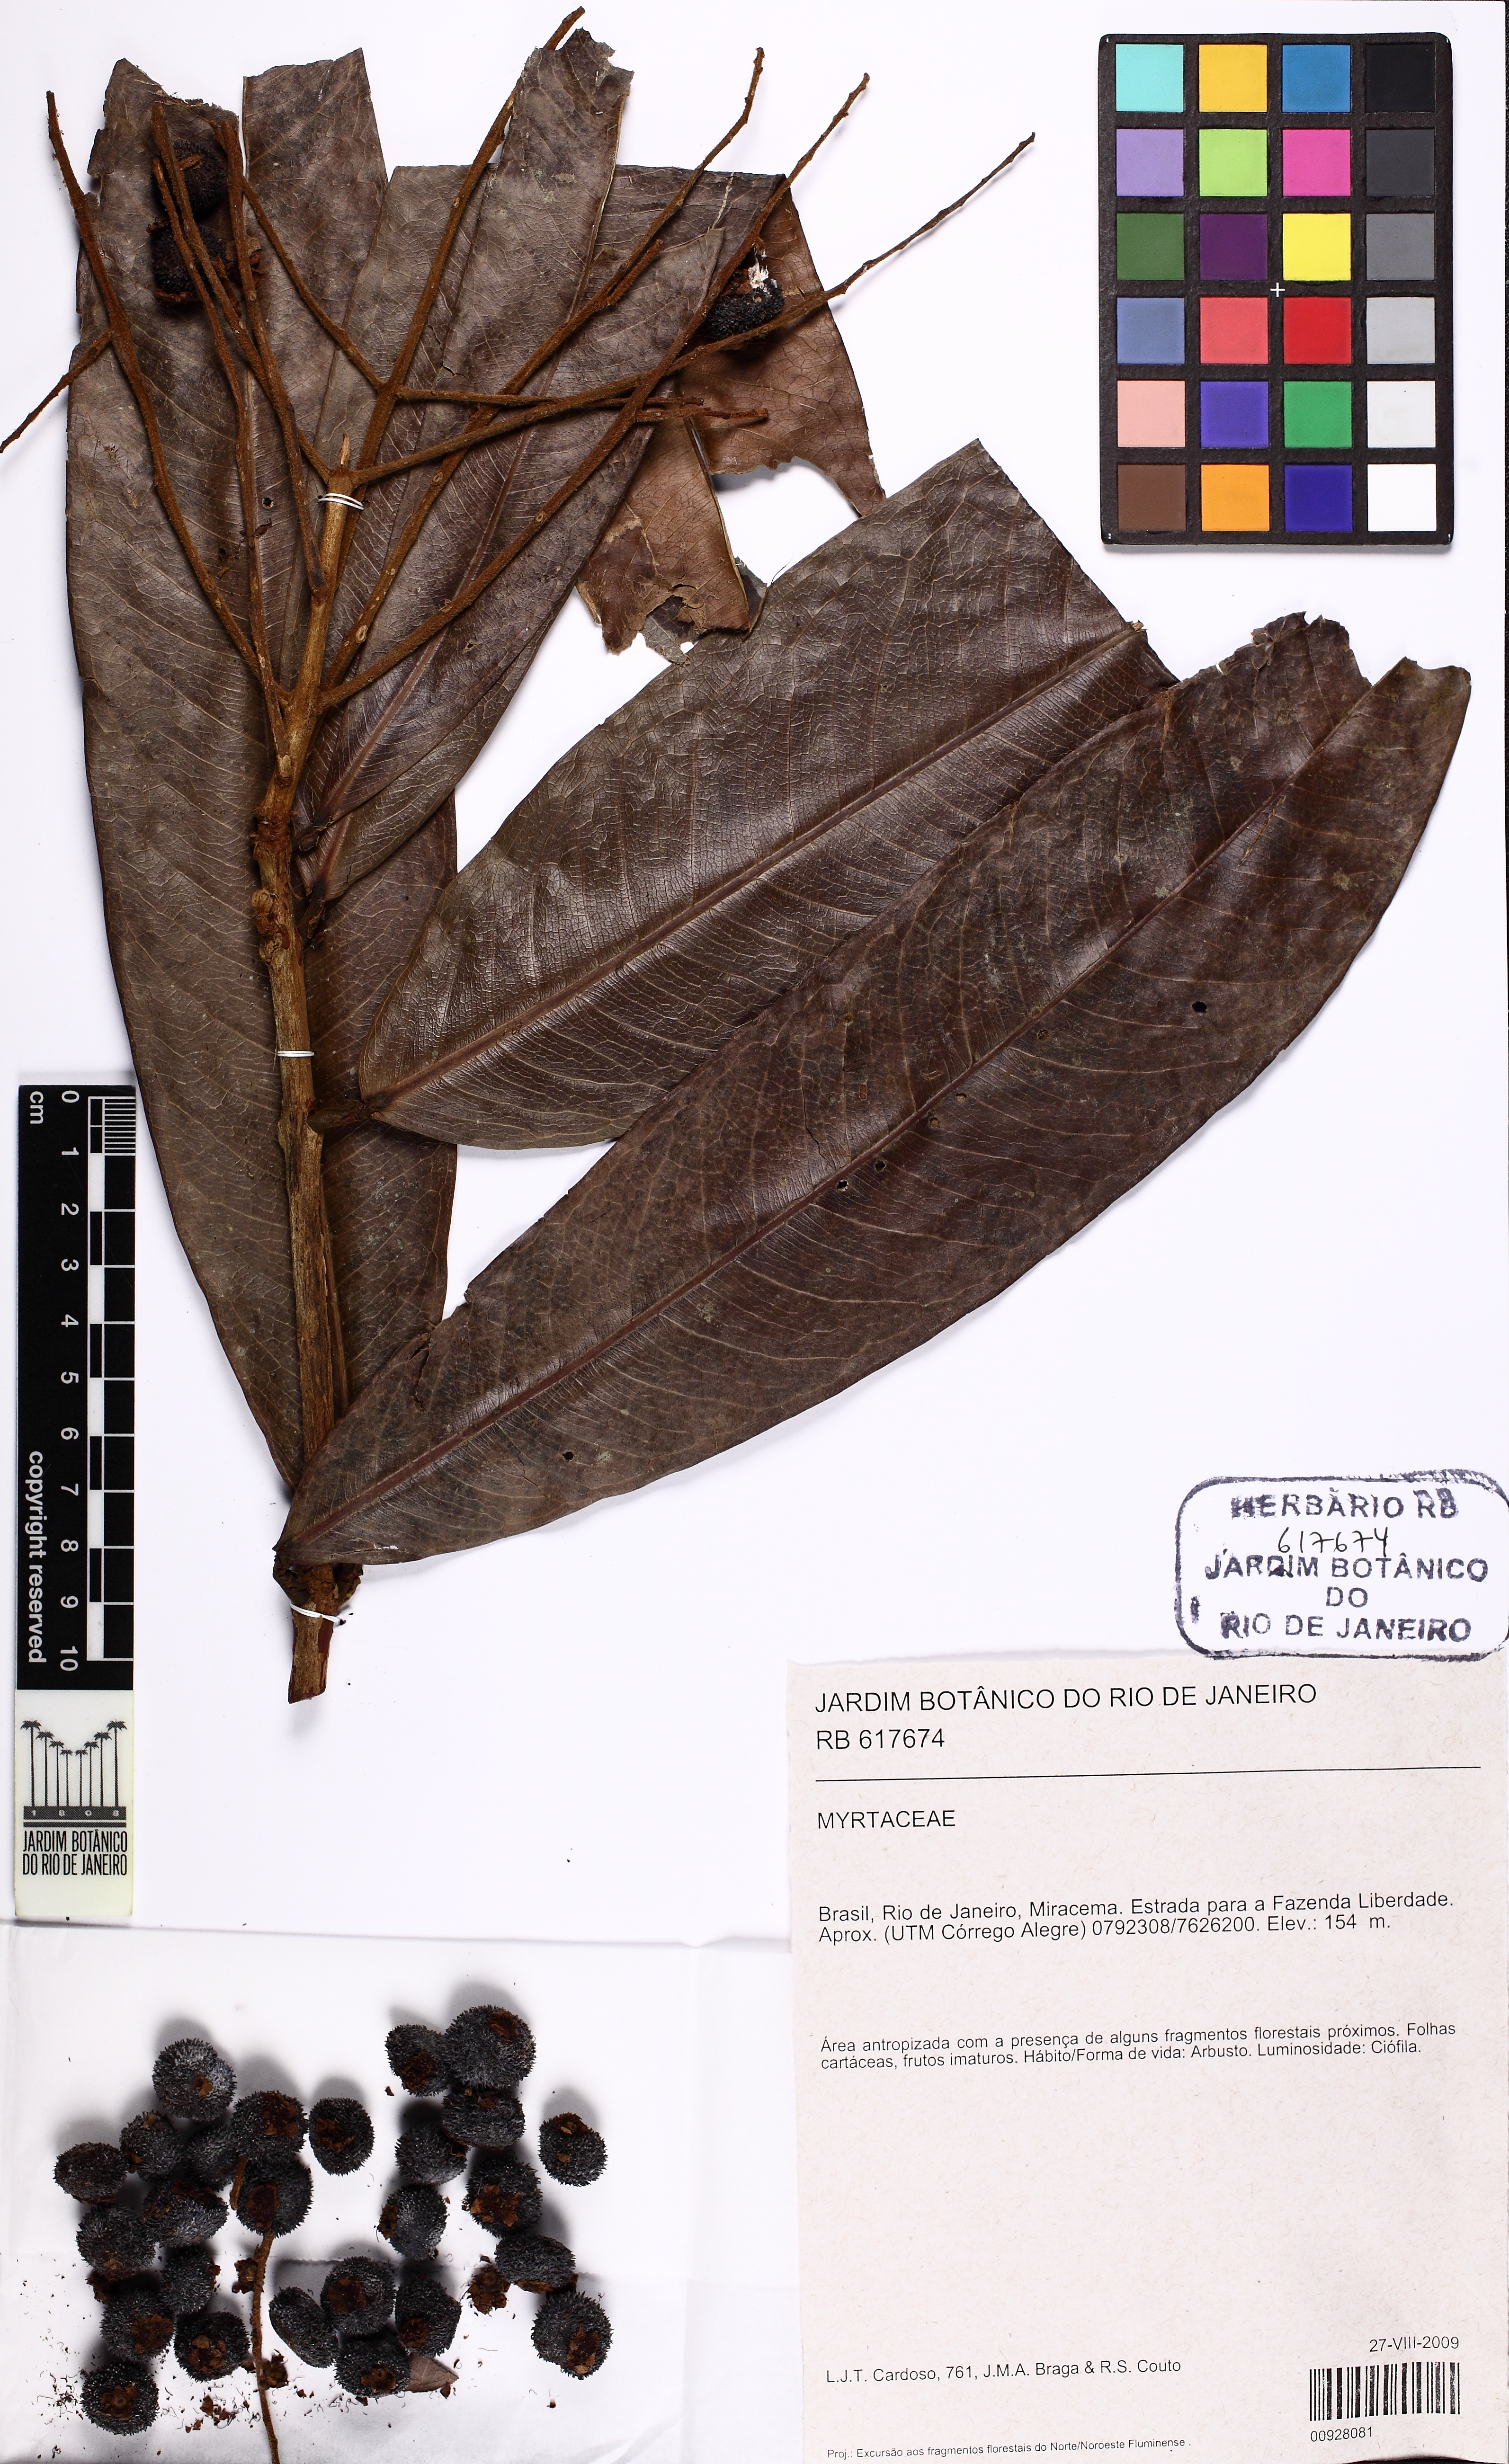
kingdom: Plantae
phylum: Tracheophyta
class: Magnoliopsida
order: Myrtales
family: Myrtaceae
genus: Myrcia
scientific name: Myrcia eumecephylla
